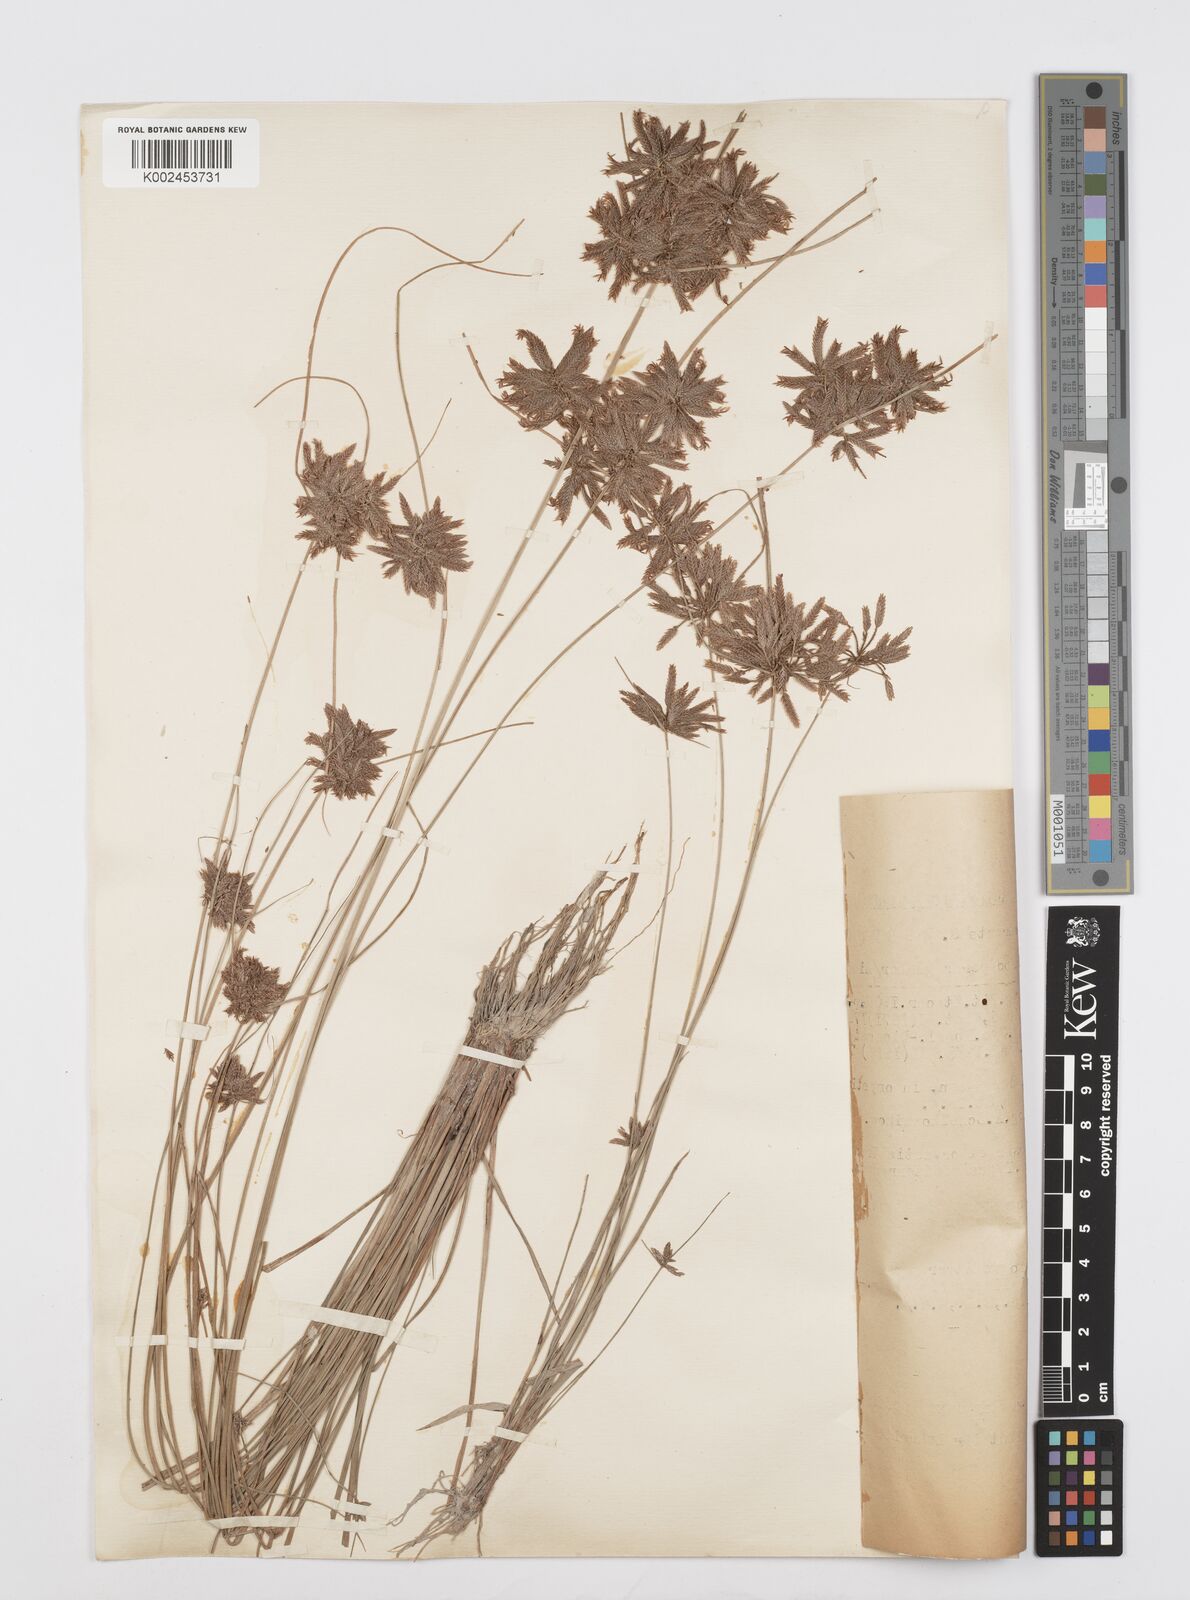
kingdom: Plantae
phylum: Tracheophyta
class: Liliopsida
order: Poales
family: Cyperaceae
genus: Cyperus
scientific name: Cyperus flavidus
